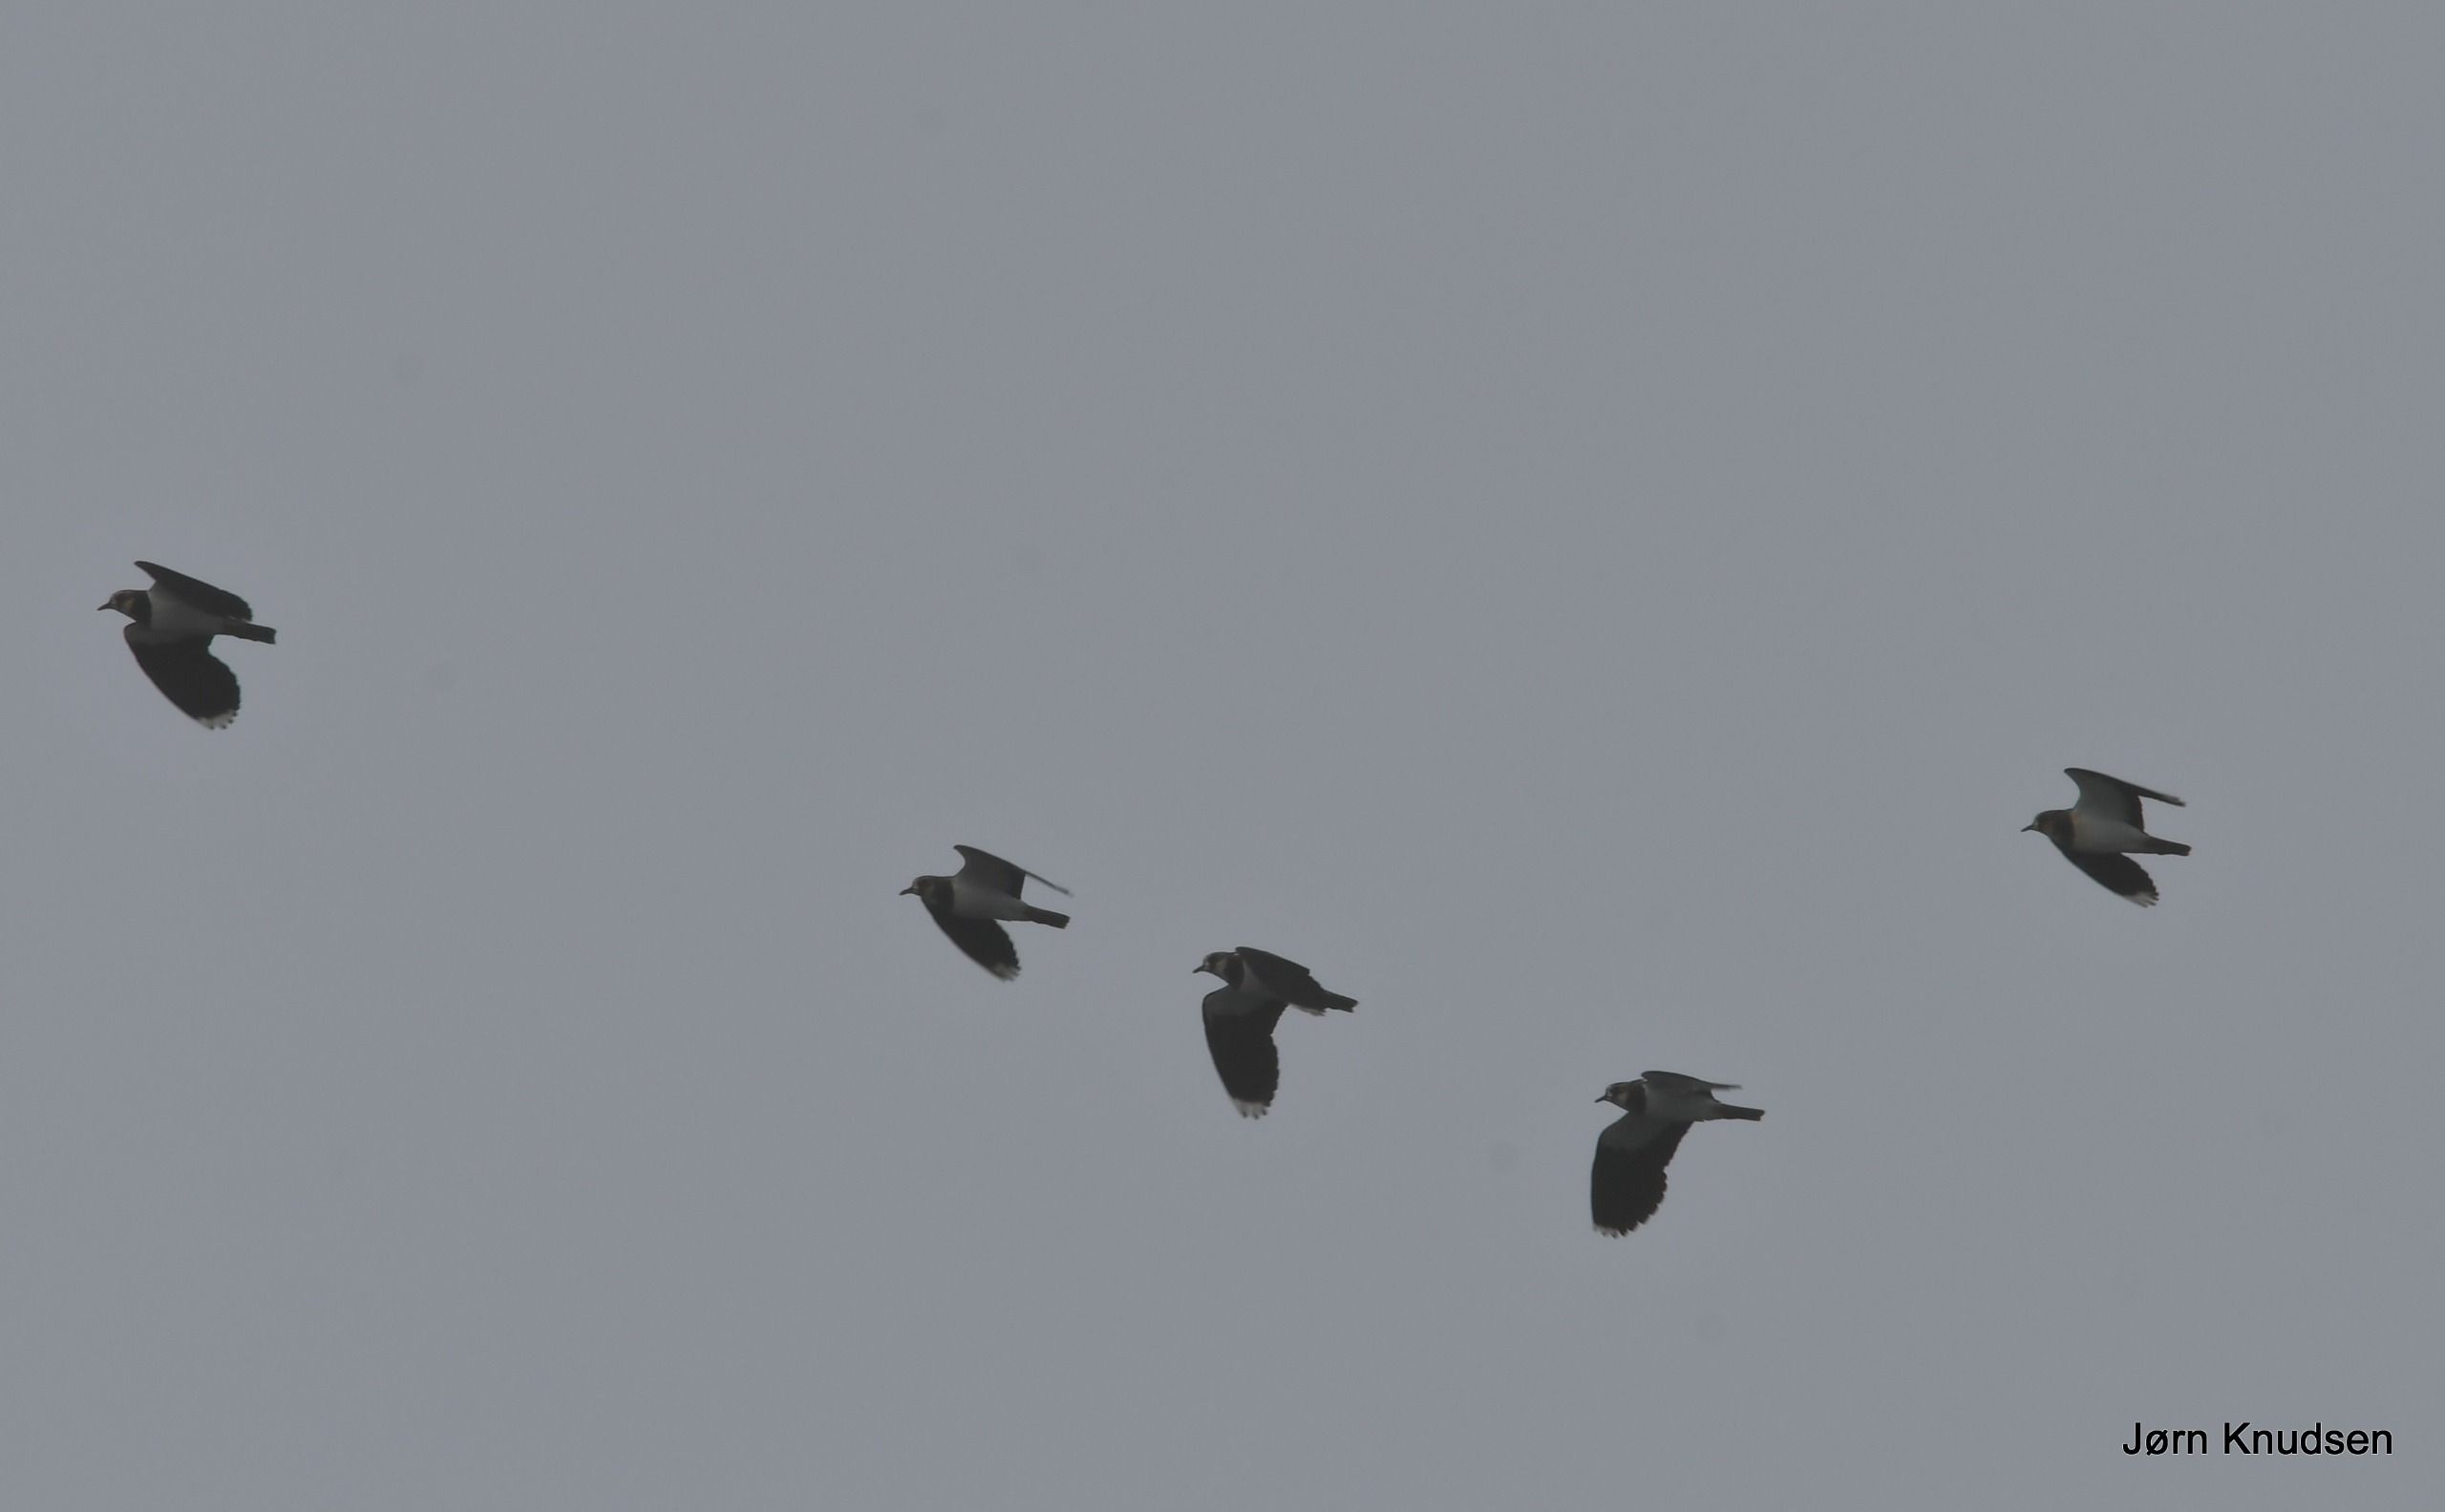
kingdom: Animalia
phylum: Chordata
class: Aves
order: Charadriiformes
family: Charadriidae
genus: Vanellus
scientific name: Vanellus vanellus
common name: Vibe
